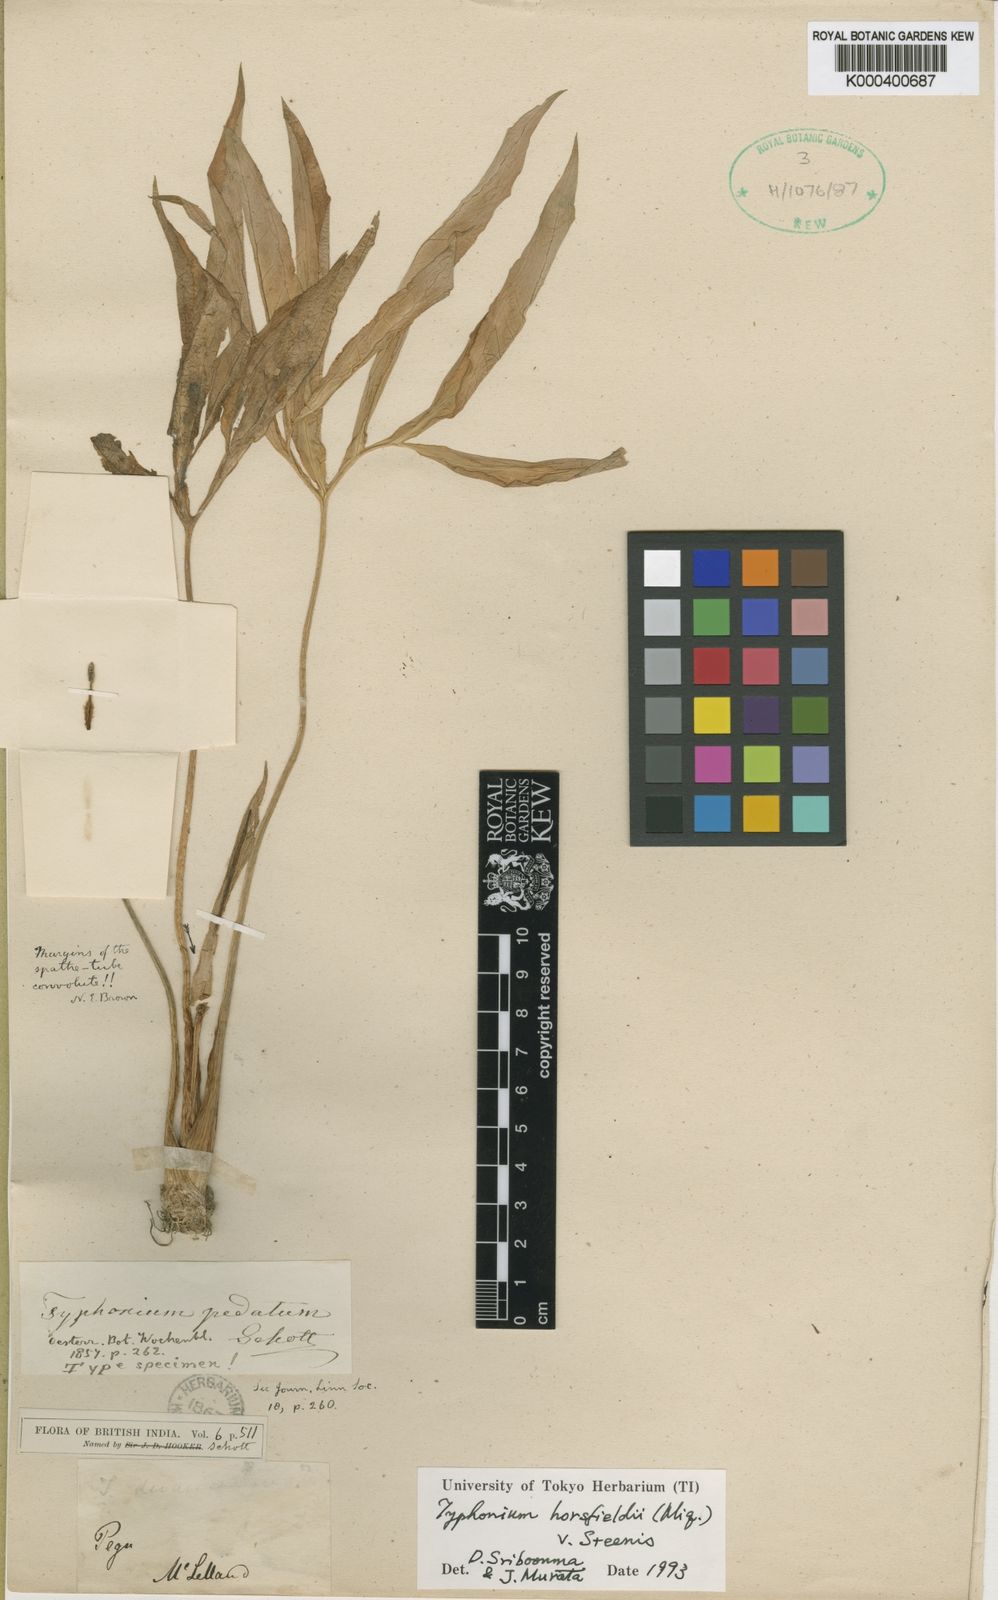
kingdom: Plantae
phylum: Tracheophyta
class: Liliopsida
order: Alismatales
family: Araceae
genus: Sauromatum
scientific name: Sauromatum horsfieldii
